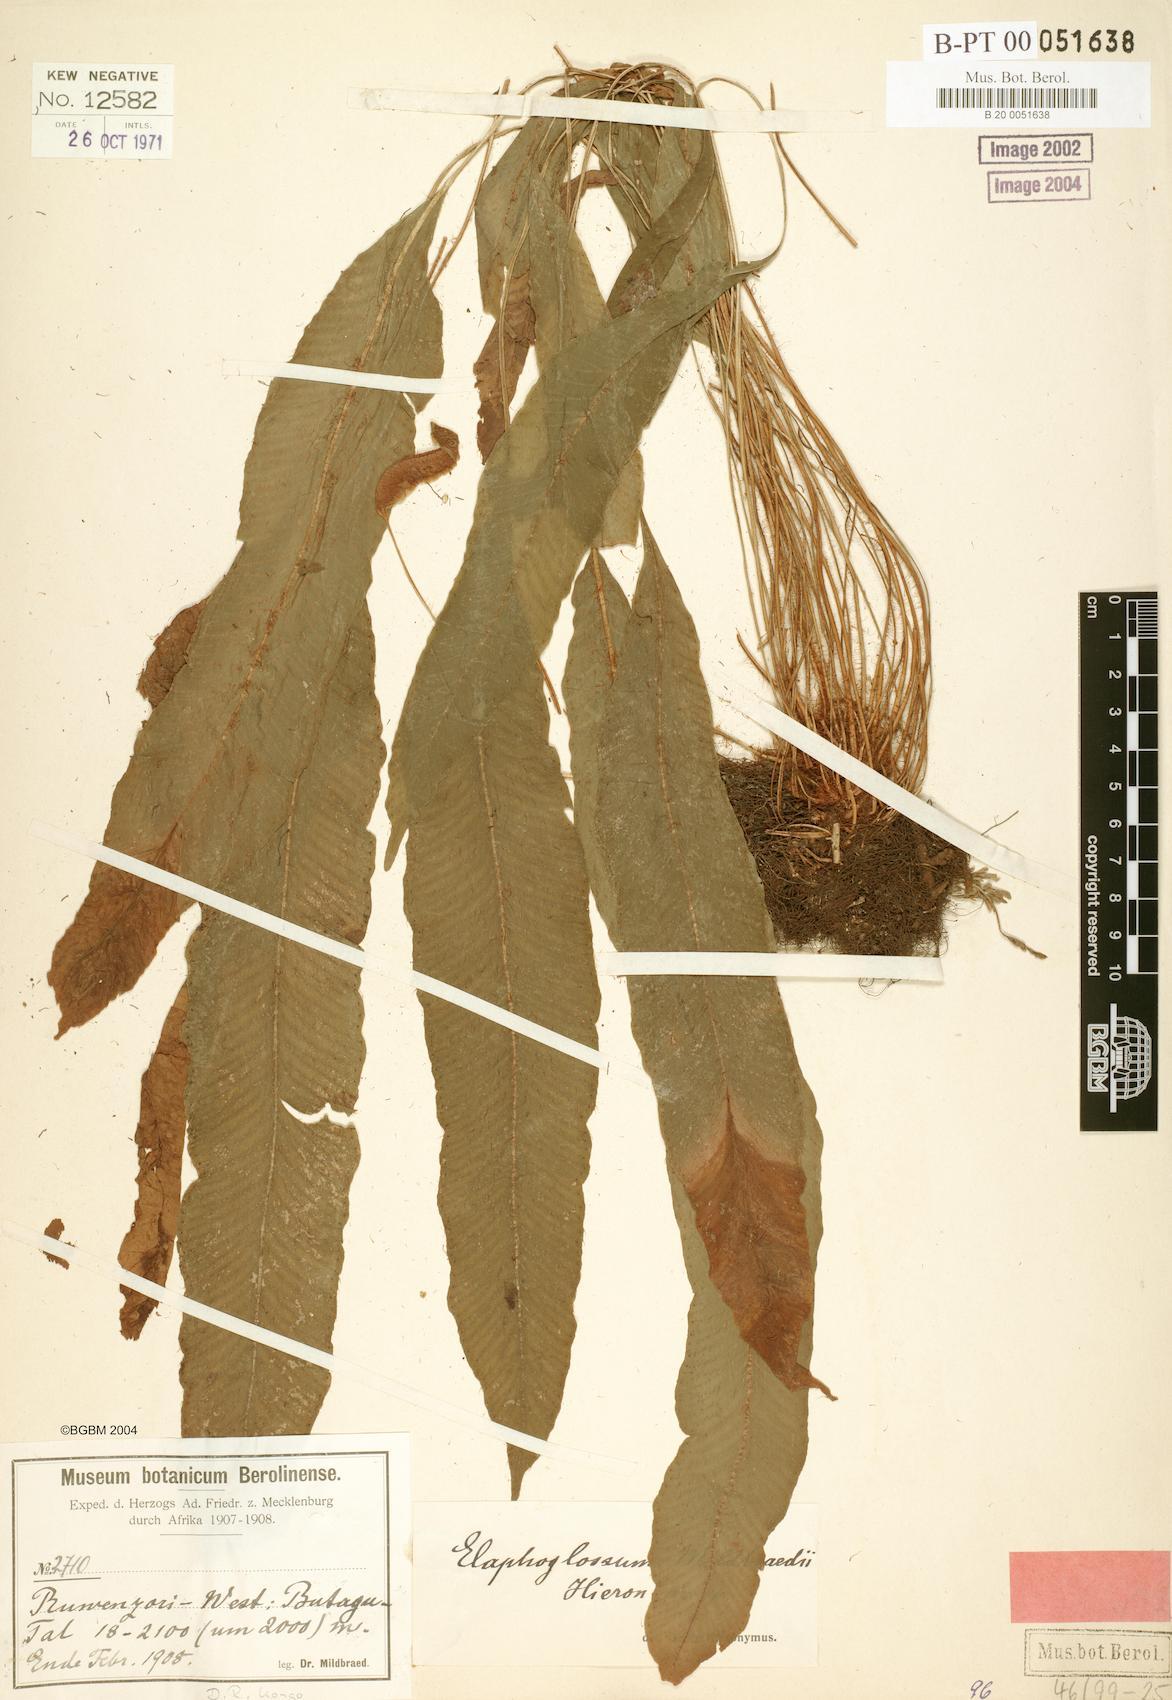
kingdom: Plantae
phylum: Tracheophyta
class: Polypodiopsida
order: Polypodiales
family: Dryopteridaceae
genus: Elaphoglossum
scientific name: Elaphoglossum mildbraedii
